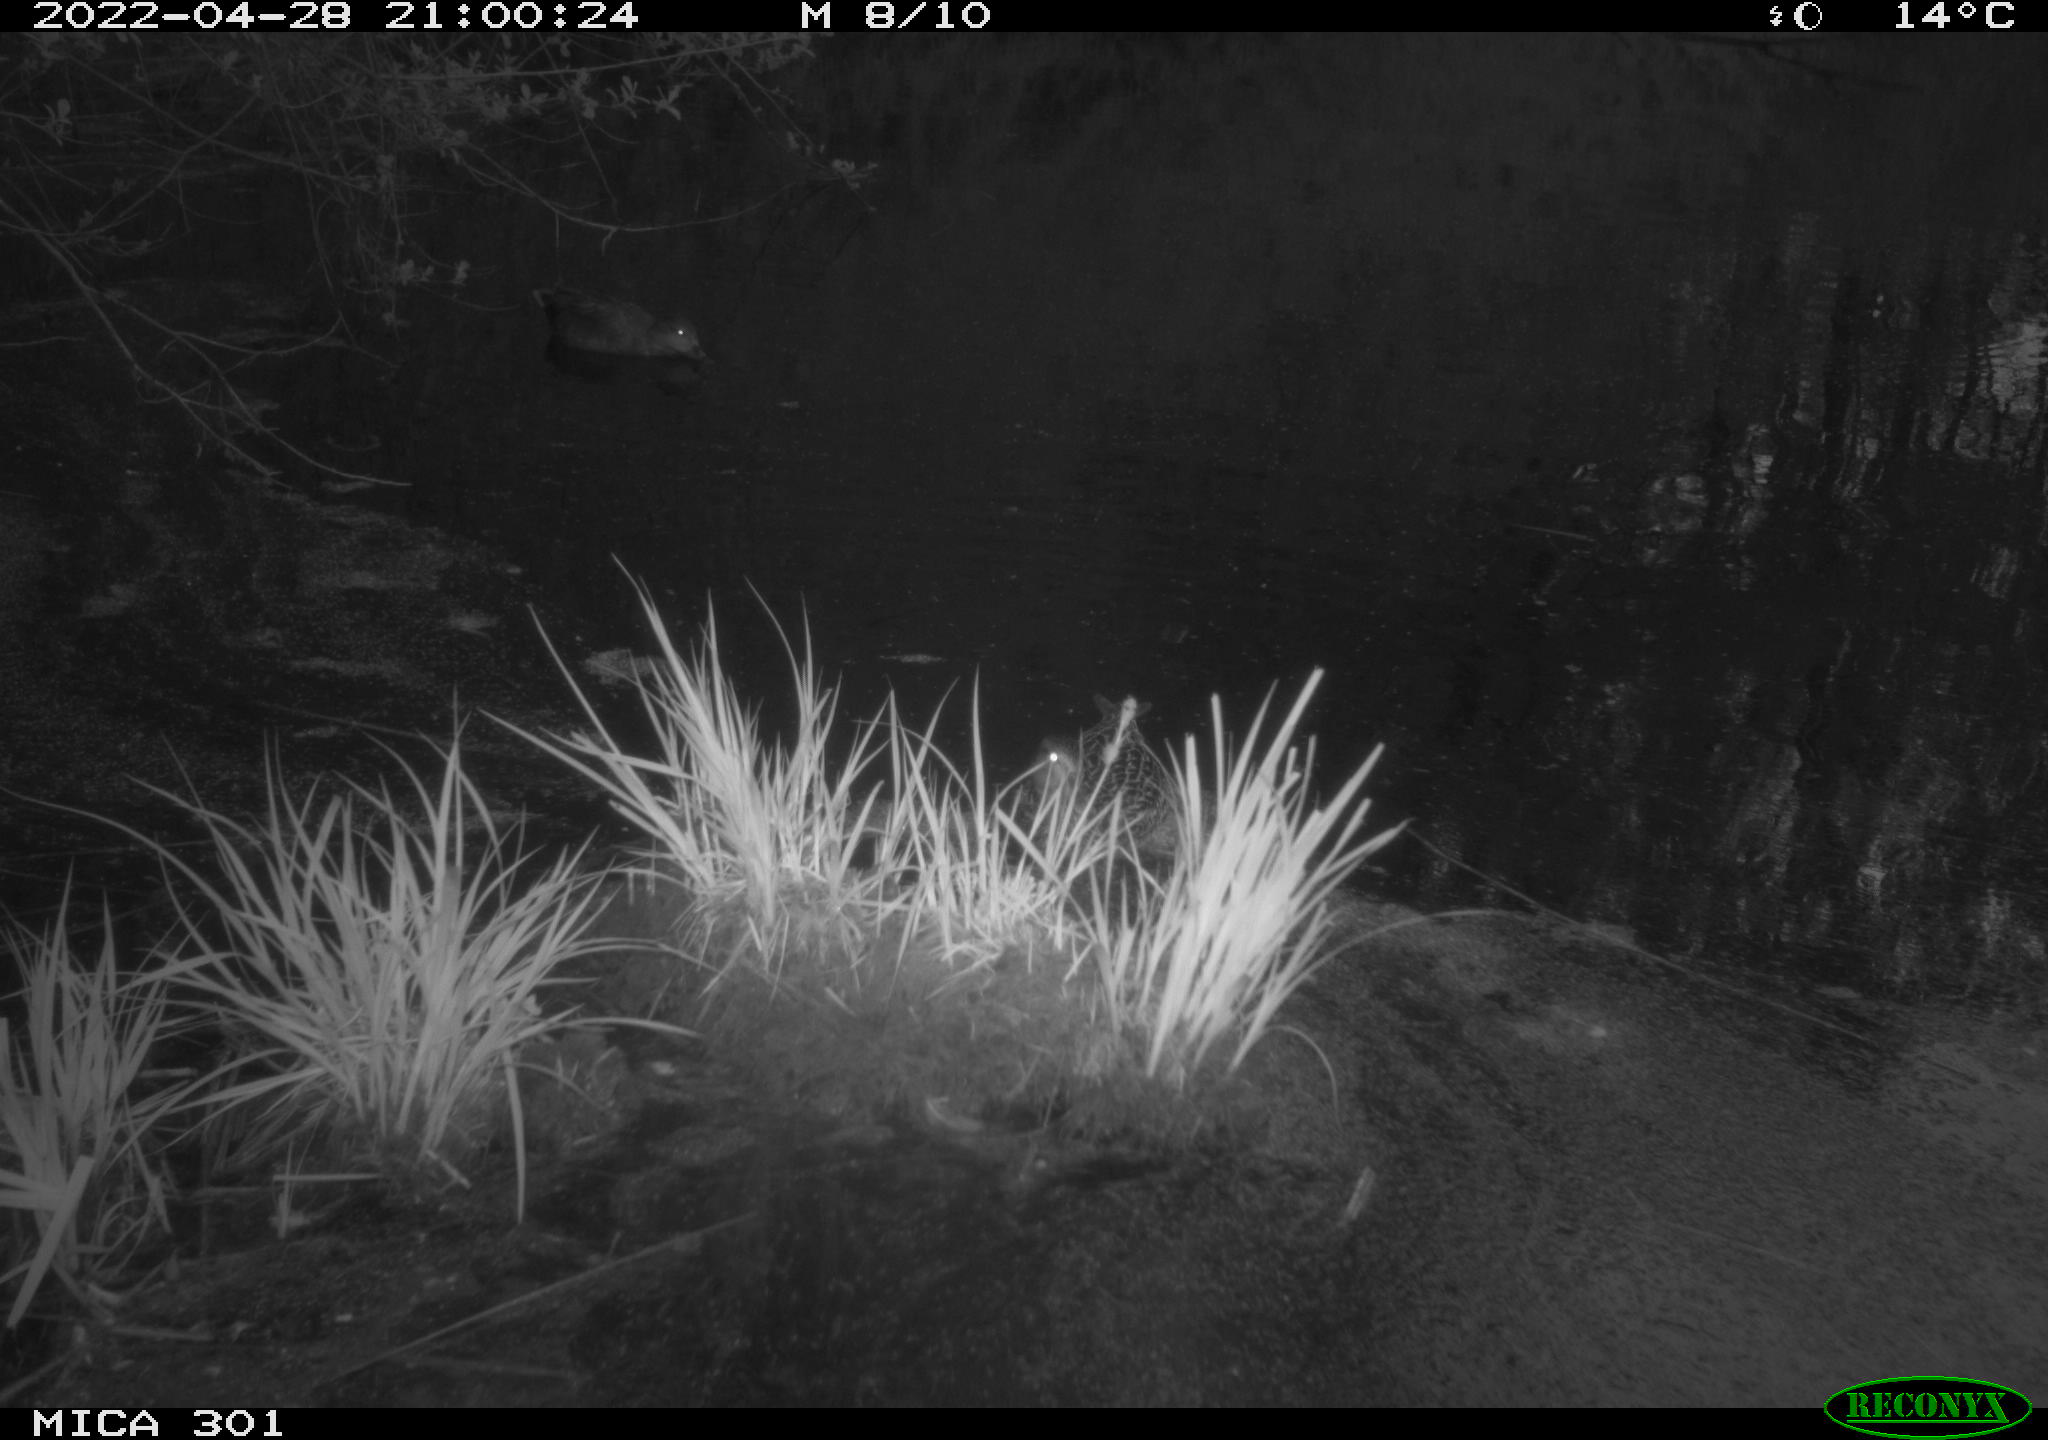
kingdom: Animalia
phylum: Chordata
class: Aves
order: Anseriformes
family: Anatidae
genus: Mareca
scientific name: Mareca strepera
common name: Gadwall
